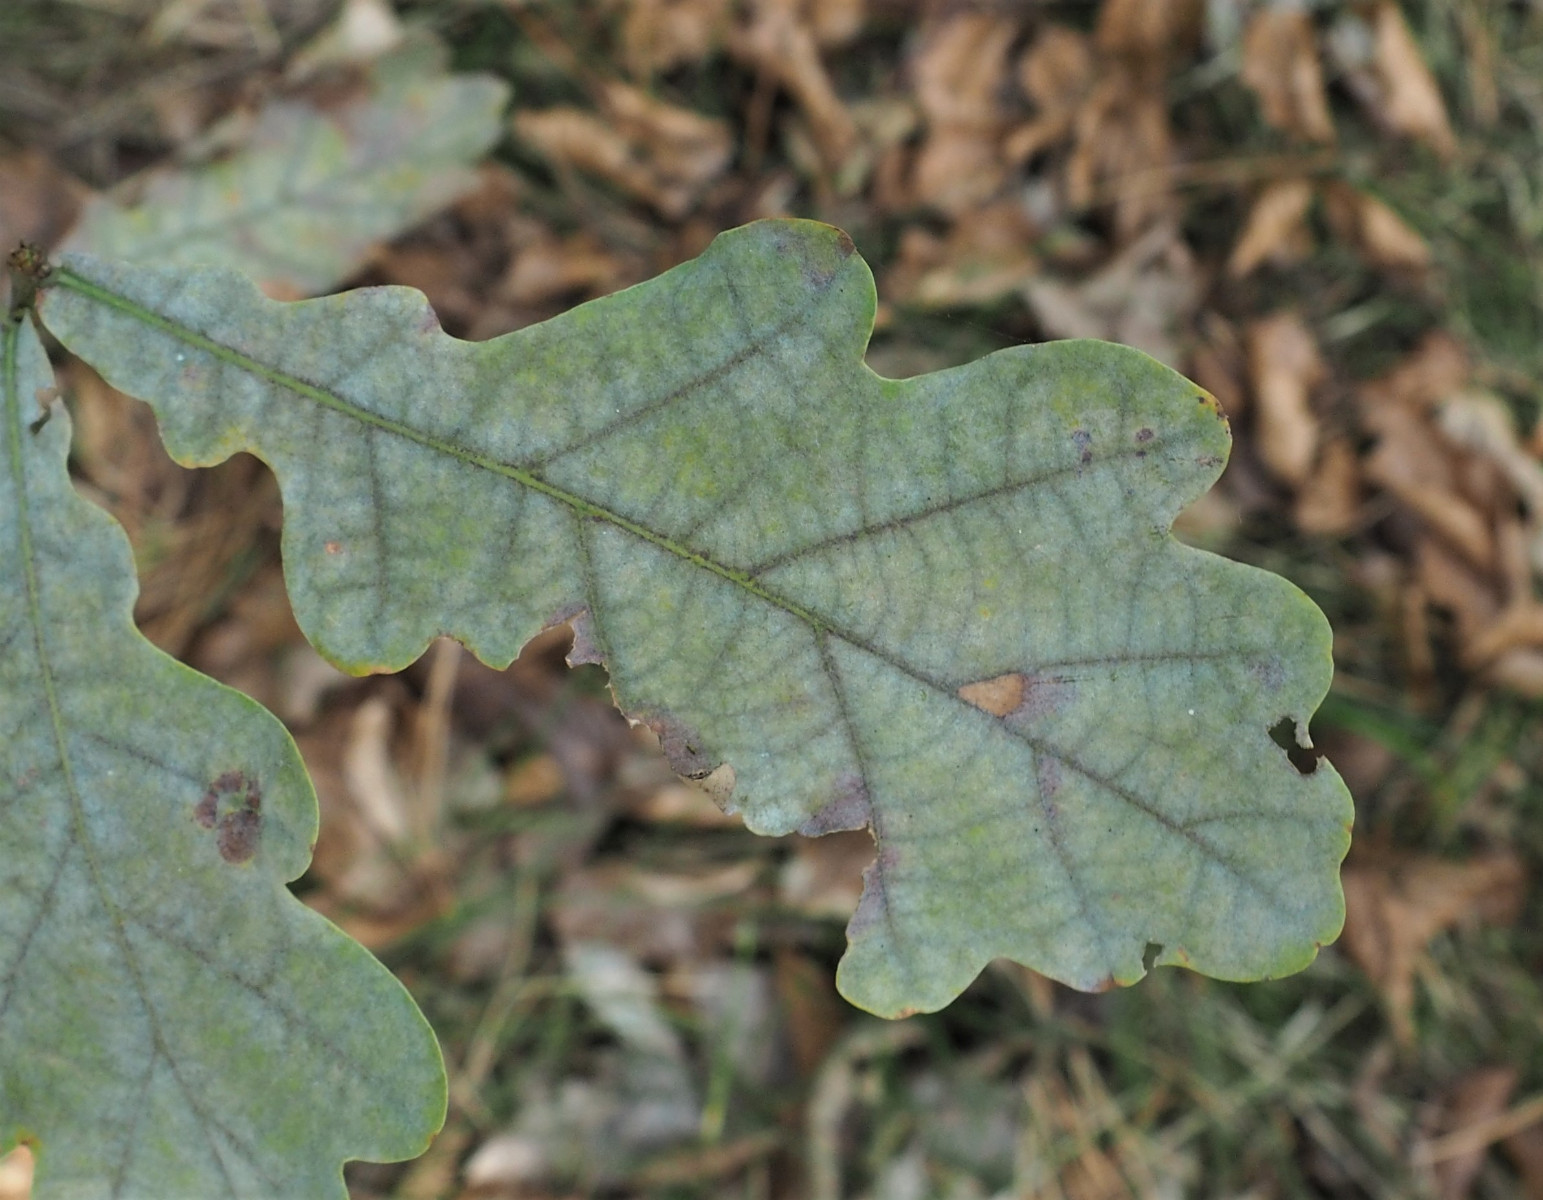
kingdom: Fungi
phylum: Ascomycota
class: Leotiomycetes
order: Helotiales
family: Erysiphaceae
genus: Erysiphe
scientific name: Erysiphe alphitoides
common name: ege-meldug
